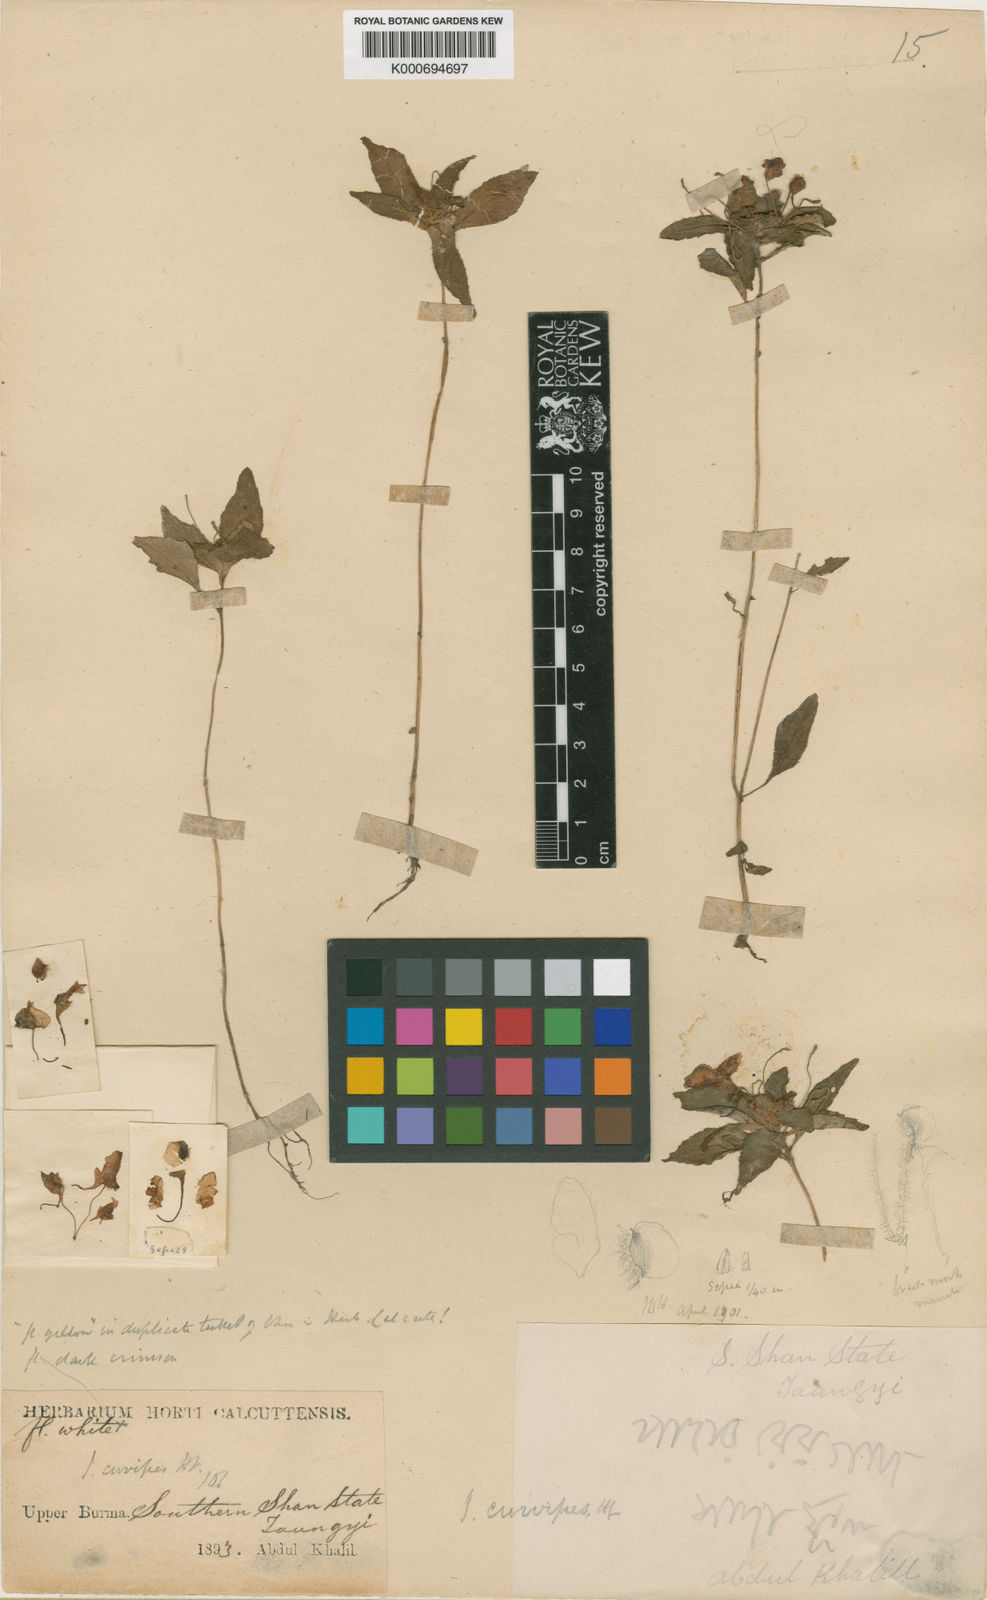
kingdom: Plantae
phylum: Tracheophyta
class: Magnoliopsida
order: Ericales
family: Balsaminaceae
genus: Impatiens
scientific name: Impatiens curvipes
